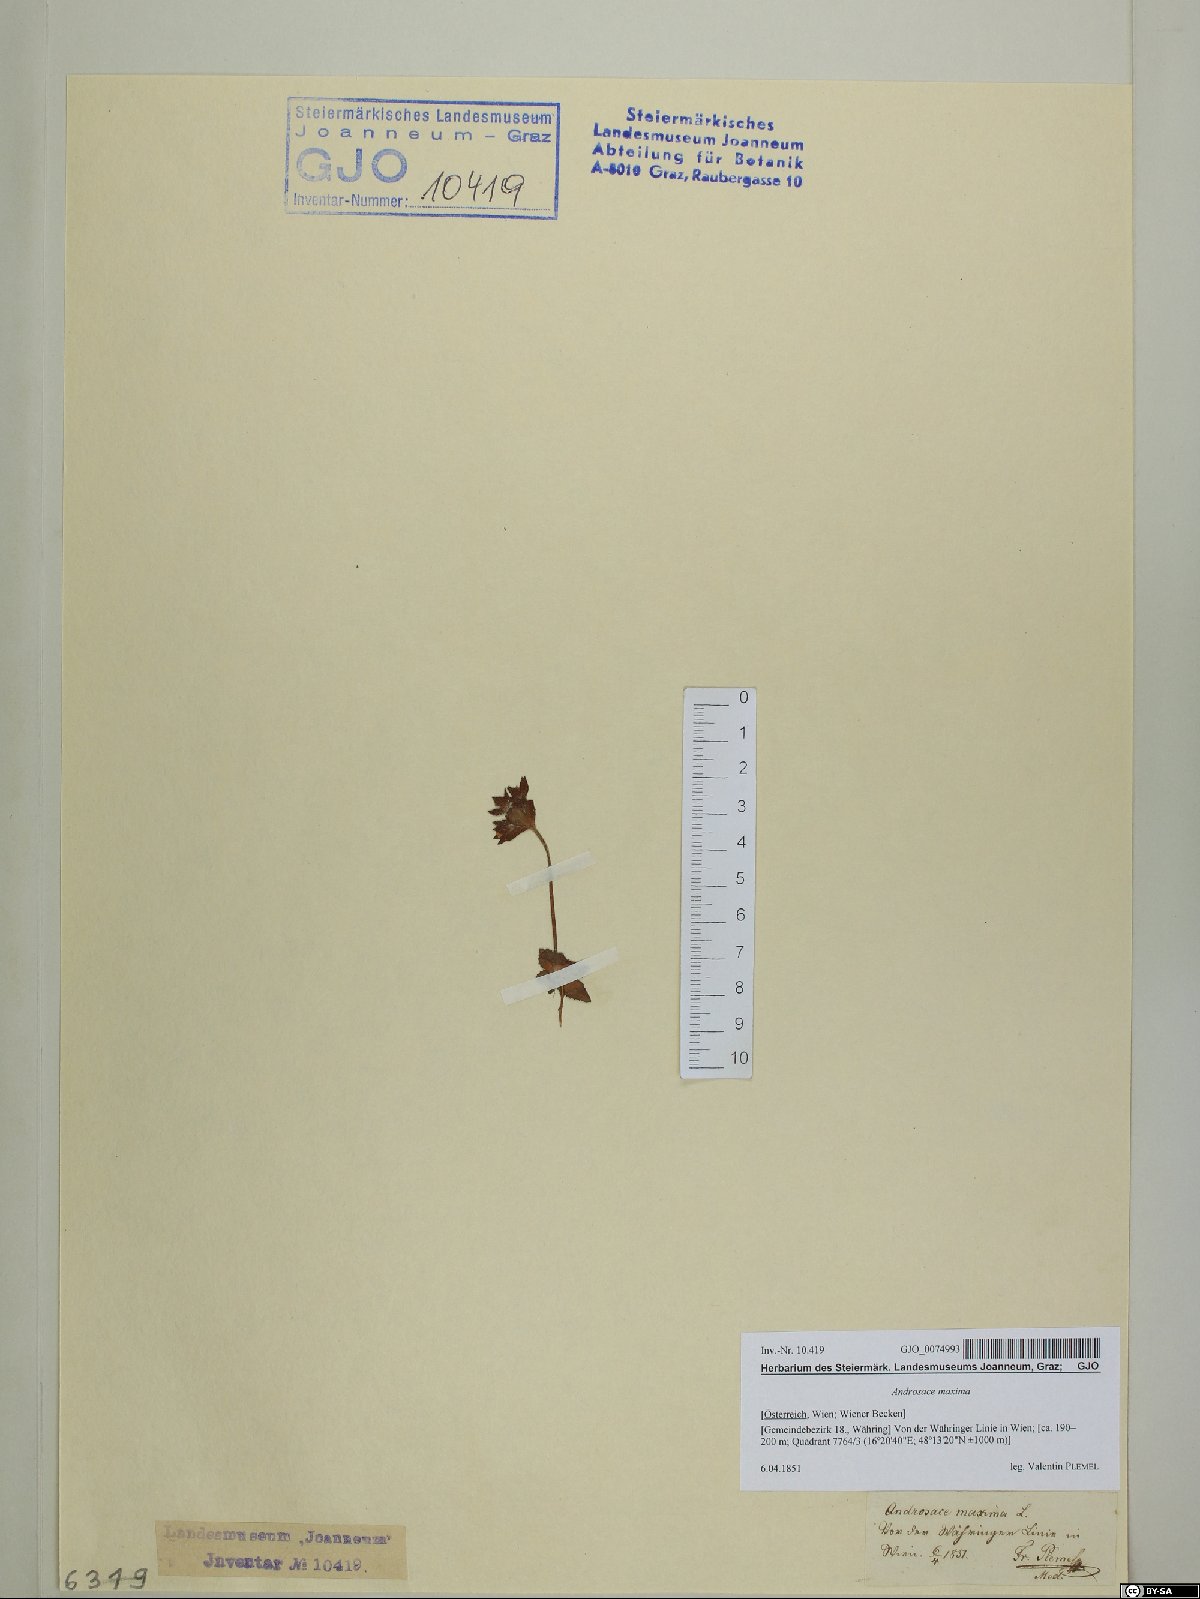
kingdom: Plantae
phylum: Tracheophyta
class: Magnoliopsida
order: Ericales
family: Primulaceae
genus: Androsace
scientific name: Androsace maxima
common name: Annual androsace
